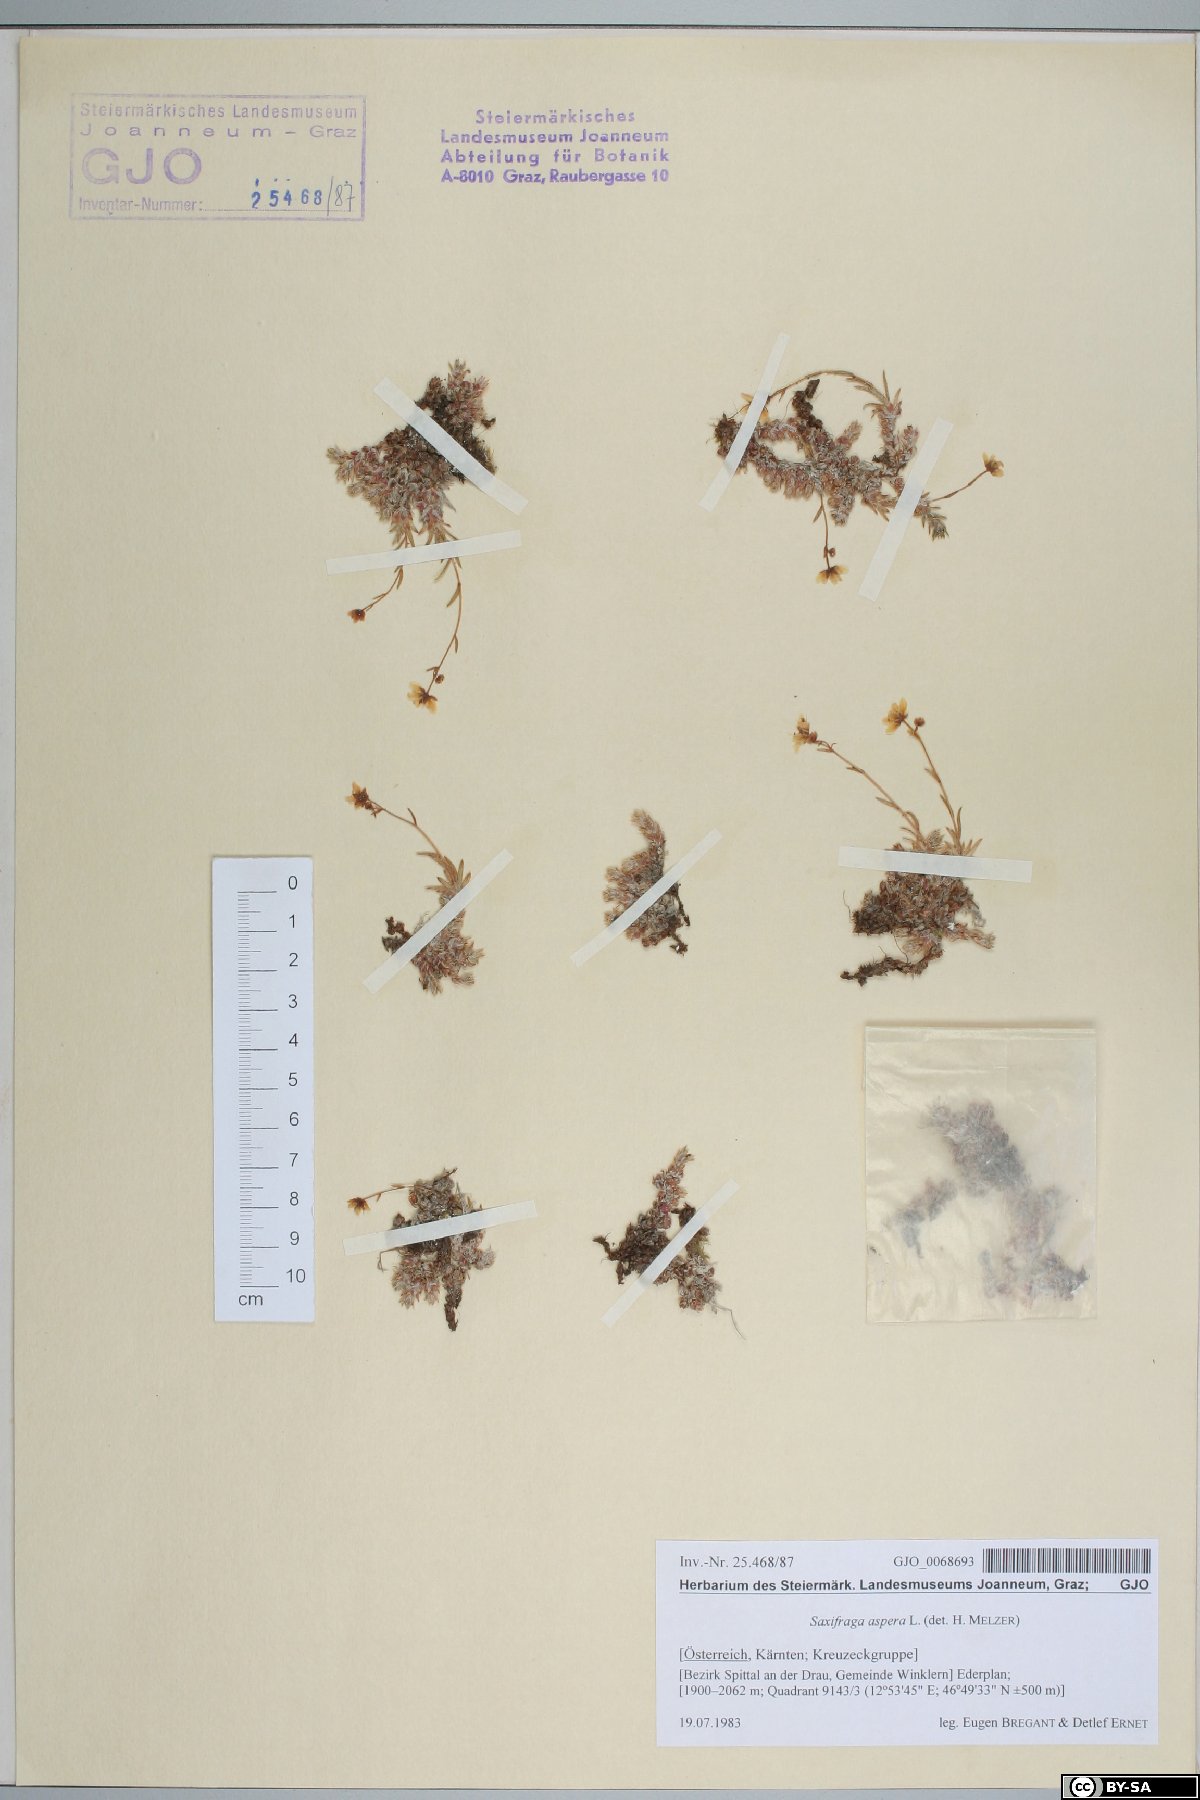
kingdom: Plantae
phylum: Tracheophyta
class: Magnoliopsida
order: Saxifragales
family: Saxifragaceae
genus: Saxifraga
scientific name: Saxifraga aspera
